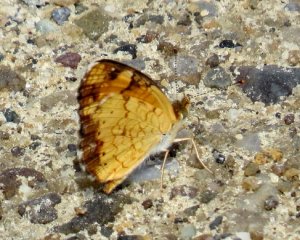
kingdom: Animalia
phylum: Arthropoda
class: Insecta
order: Lepidoptera
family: Nymphalidae
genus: Phyciodes
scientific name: Phyciodes tharos
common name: Pearl Crescent
